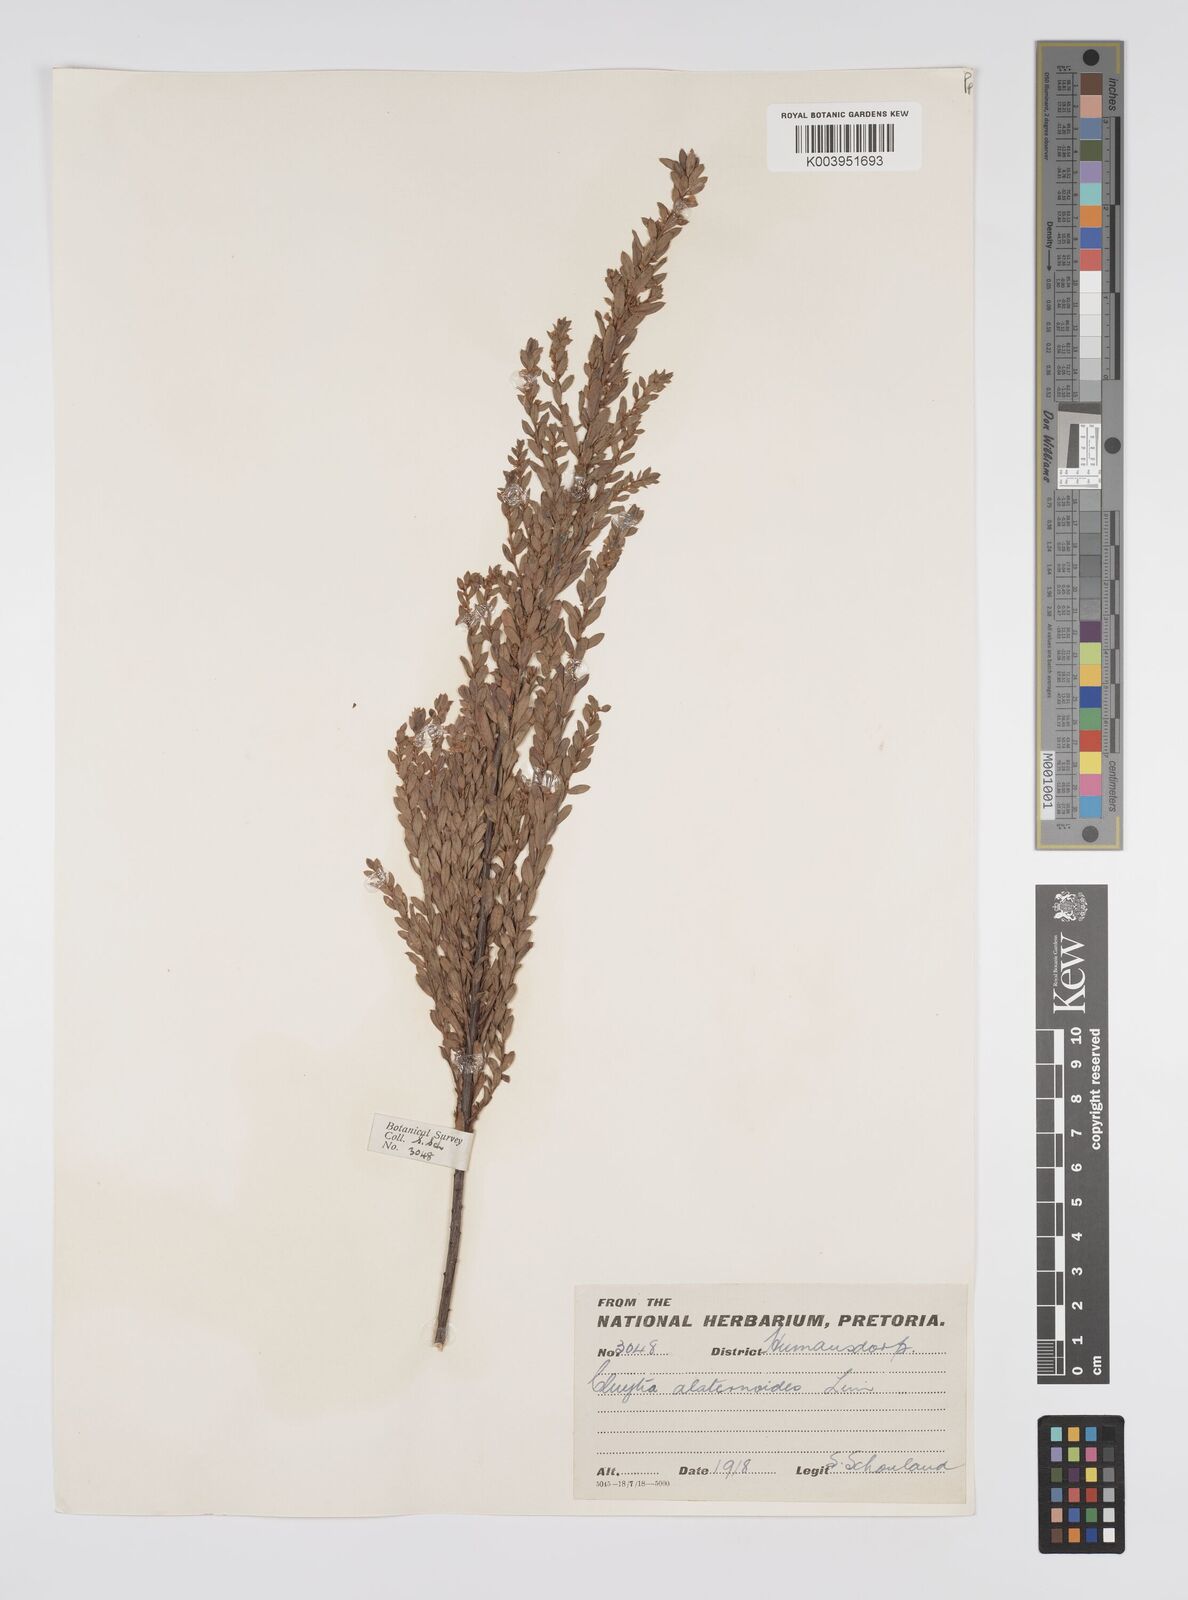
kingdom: Plantae
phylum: Tracheophyta
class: Magnoliopsida
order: Malpighiales
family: Peraceae
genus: Clutia
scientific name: Clutia alaternoides
